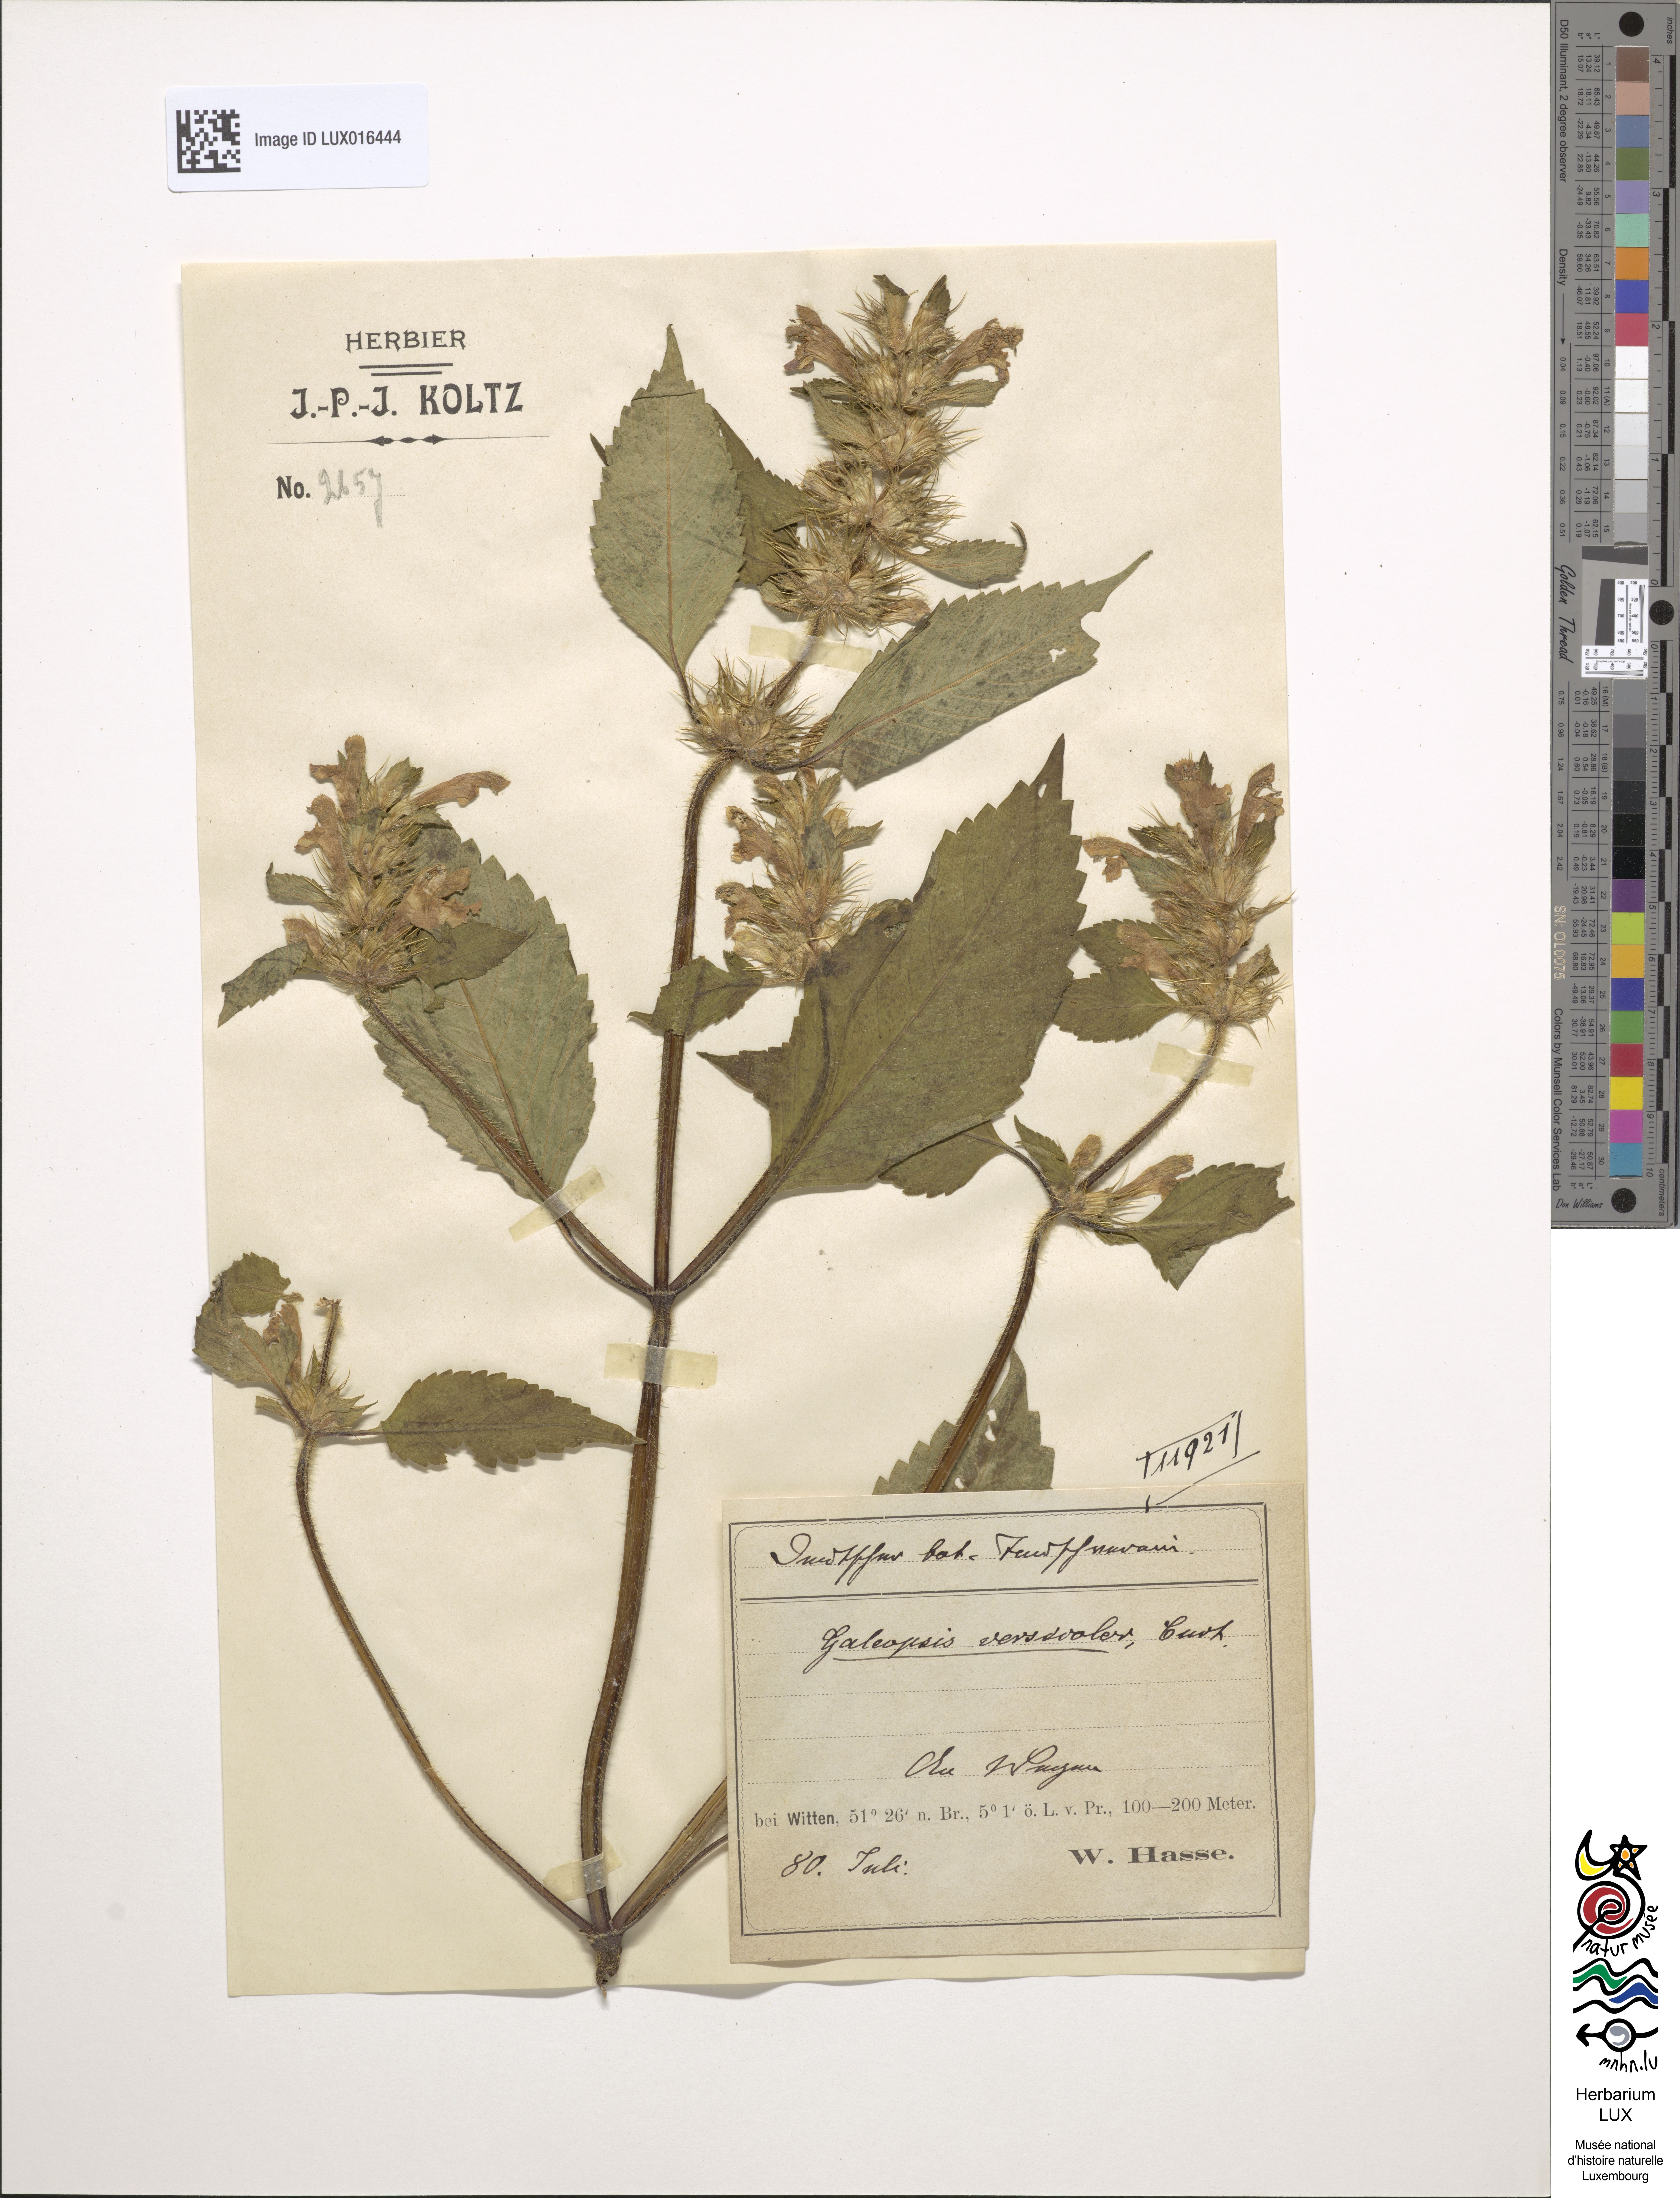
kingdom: Plantae
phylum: Tracheophyta
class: Magnoliopsida
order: Lamiales
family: Lamiaceae
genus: Galeopsis
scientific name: Galeopsis speciosa
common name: Large-flowered hemp-nettle
